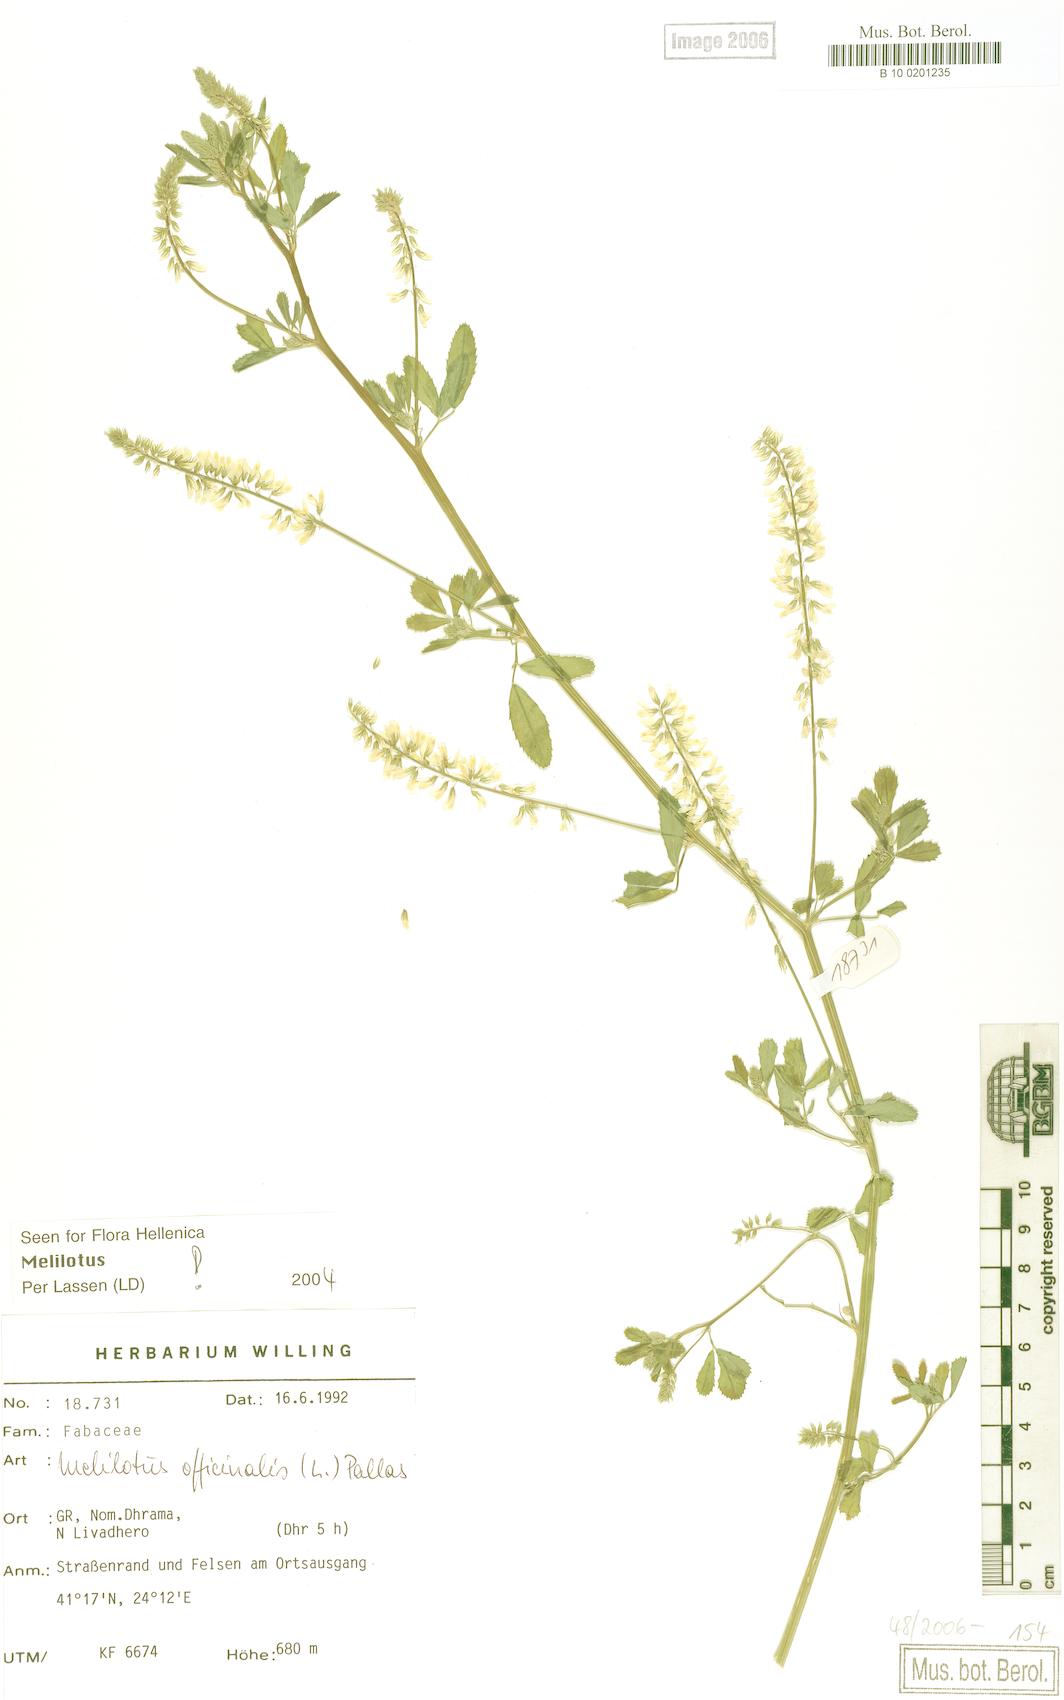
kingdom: Plantae
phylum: Tracheophyta
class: Magnoliopsida
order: Fabales
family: Fabaceae
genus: Melilotus
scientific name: Melilotus officinalis
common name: Sweetclover
